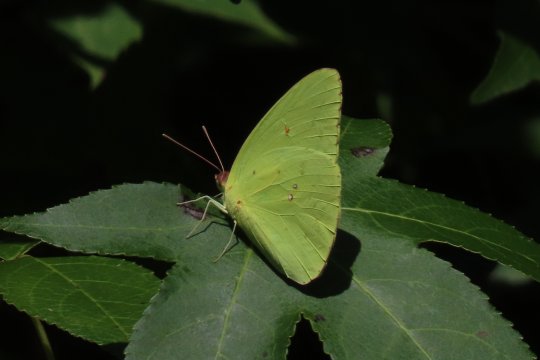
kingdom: Animalia
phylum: Arthropoda
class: Insecta
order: Lepidoptera
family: Pieridae
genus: Phoebis
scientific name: Phoebis sennae
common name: Cloudless Sulphur
